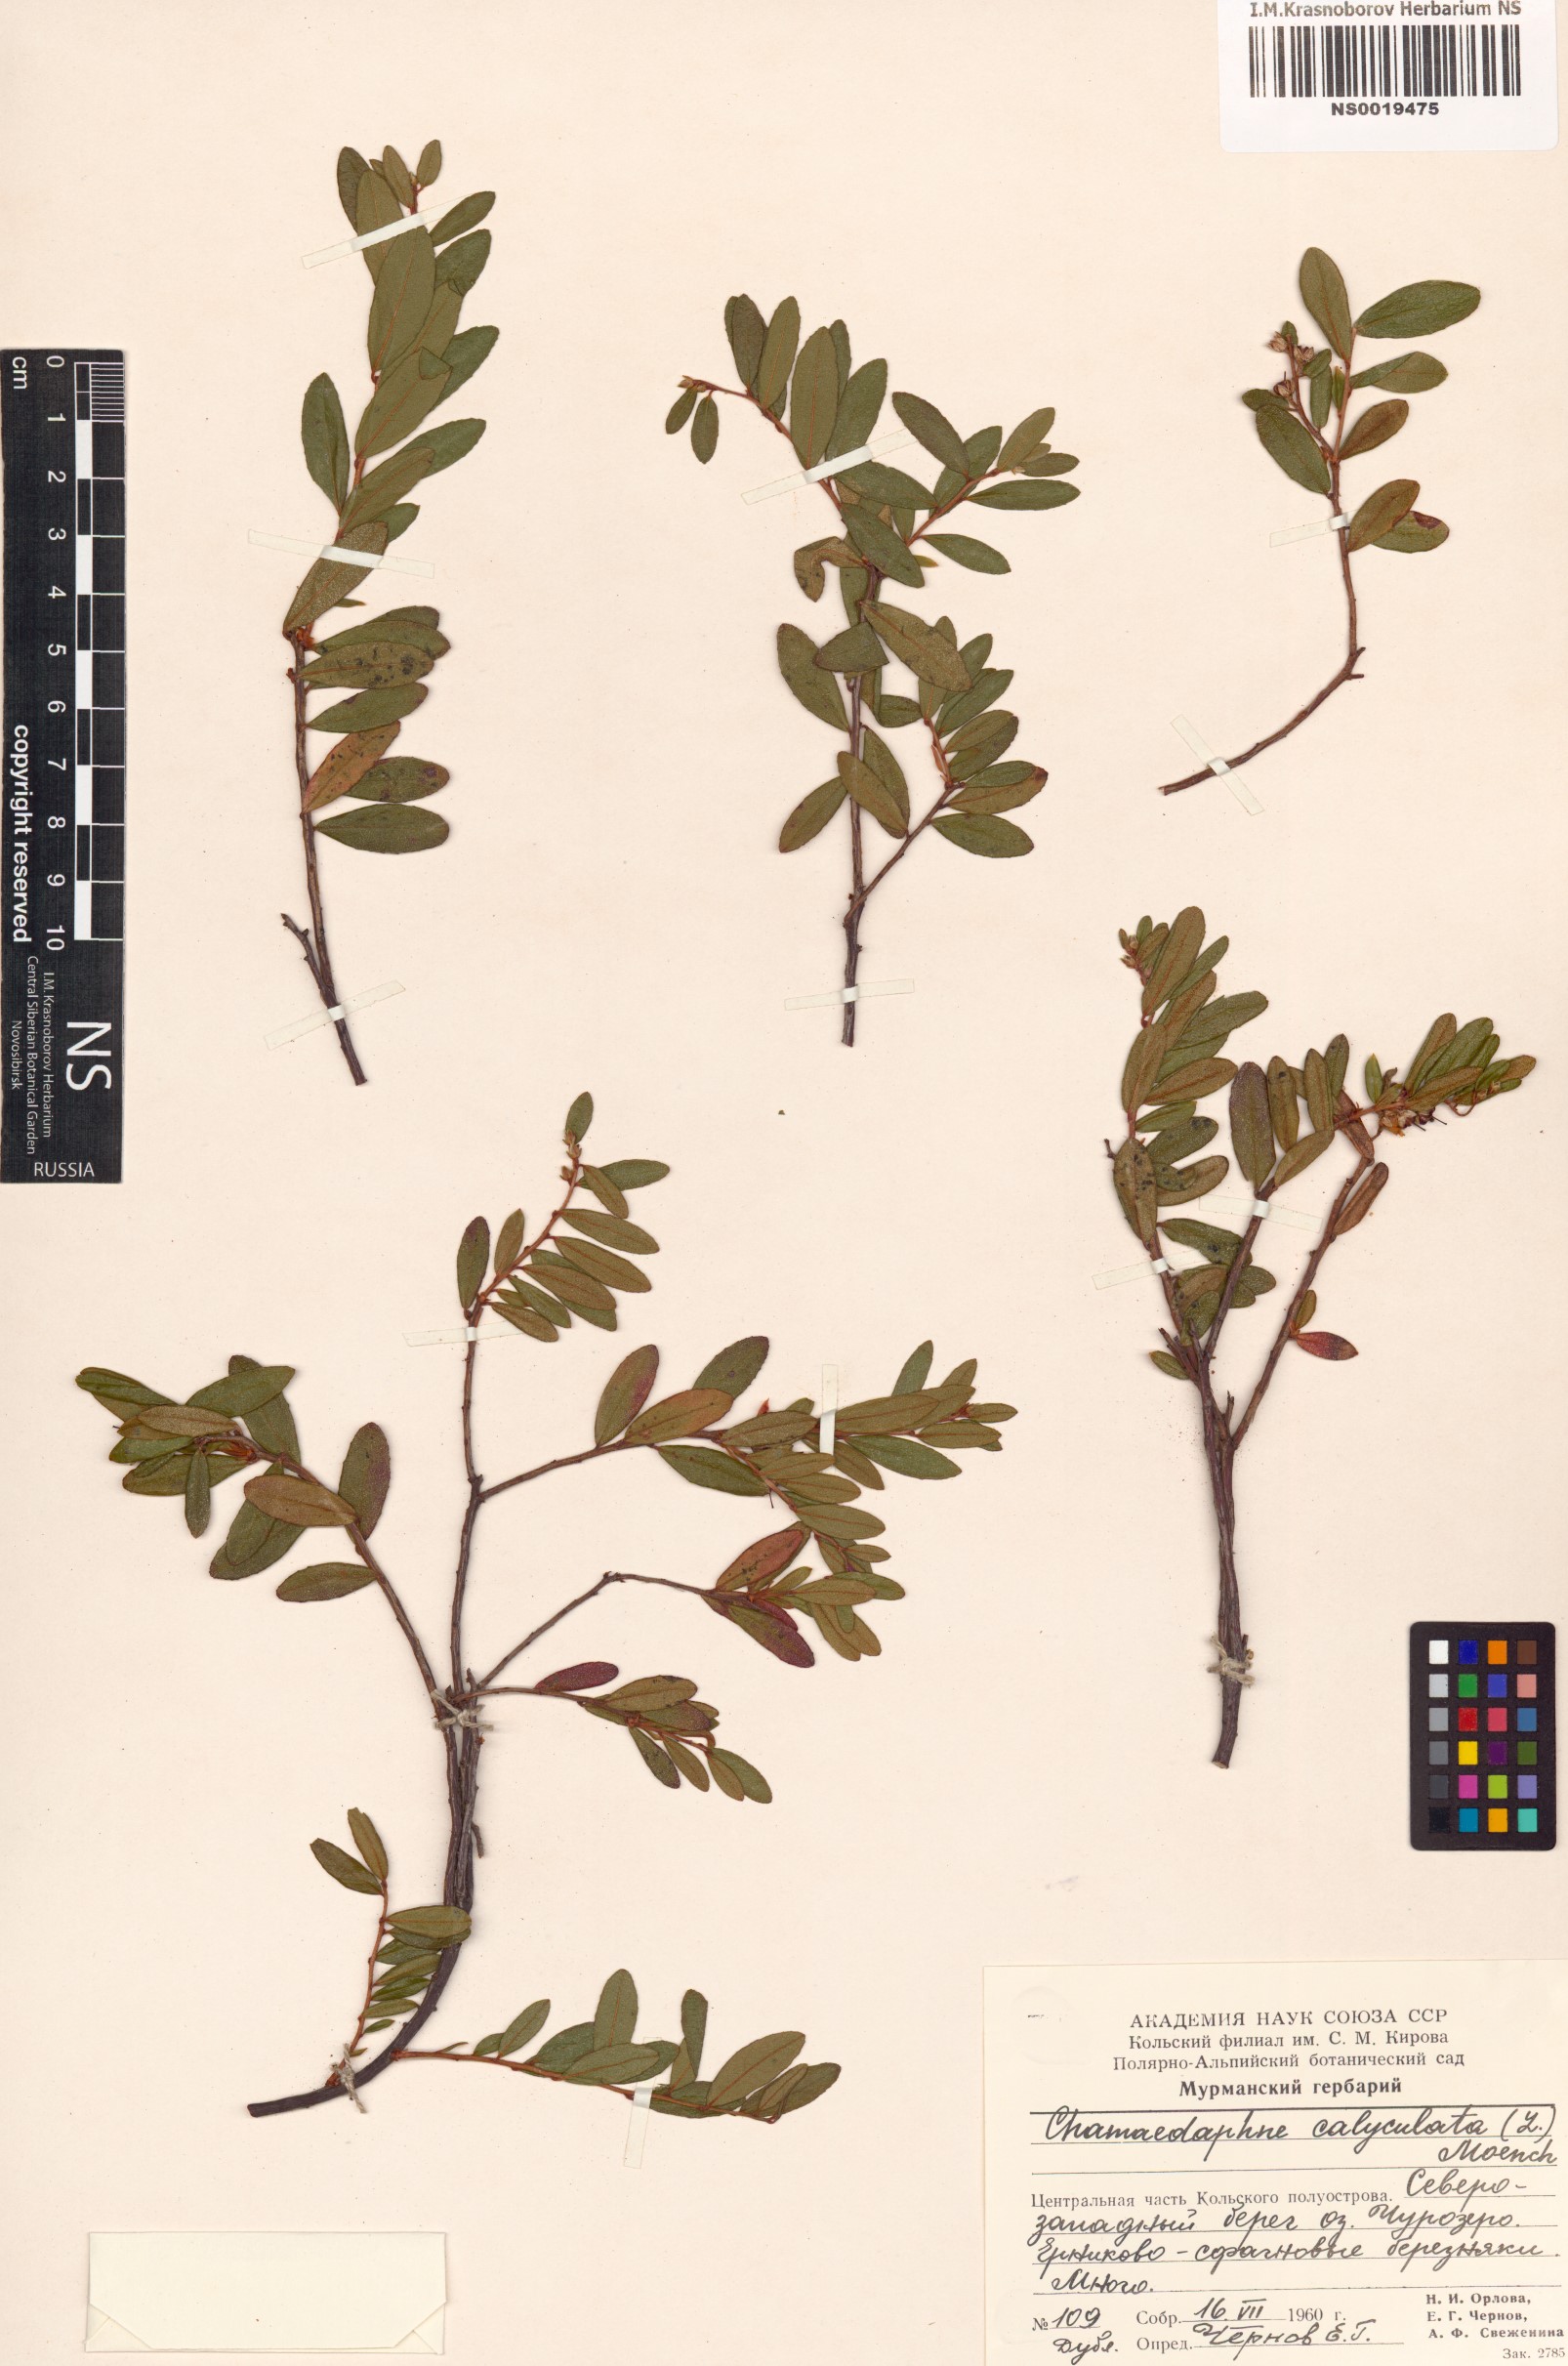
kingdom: Plantae
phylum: Tracheophyta
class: Magnoliopsida
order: Ericales
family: Ericaceae
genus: Chamaedaphne
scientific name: Chamaedaphne calyculata
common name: Leatherleaf
